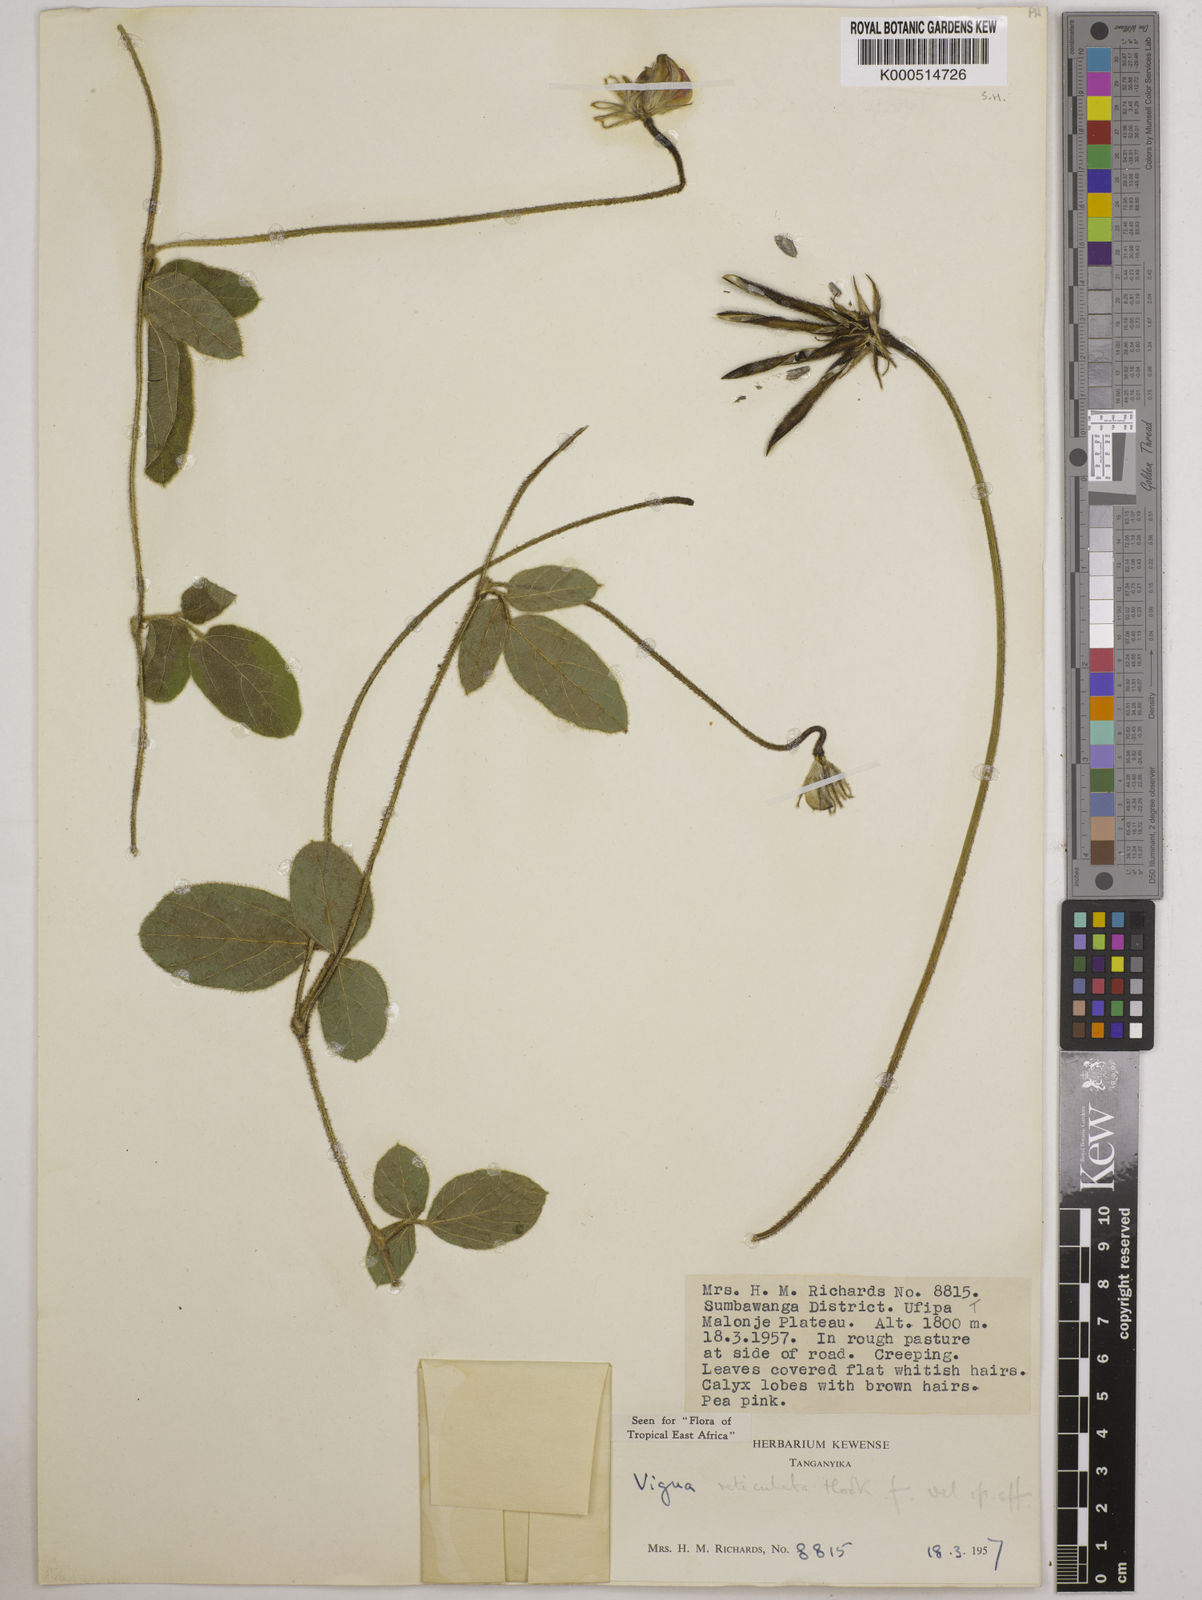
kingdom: Plantae
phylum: Tracheophyta
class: Magnoliopsida
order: Fabales
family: Fabaceae
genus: Vigna
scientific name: Vigna reticulata
